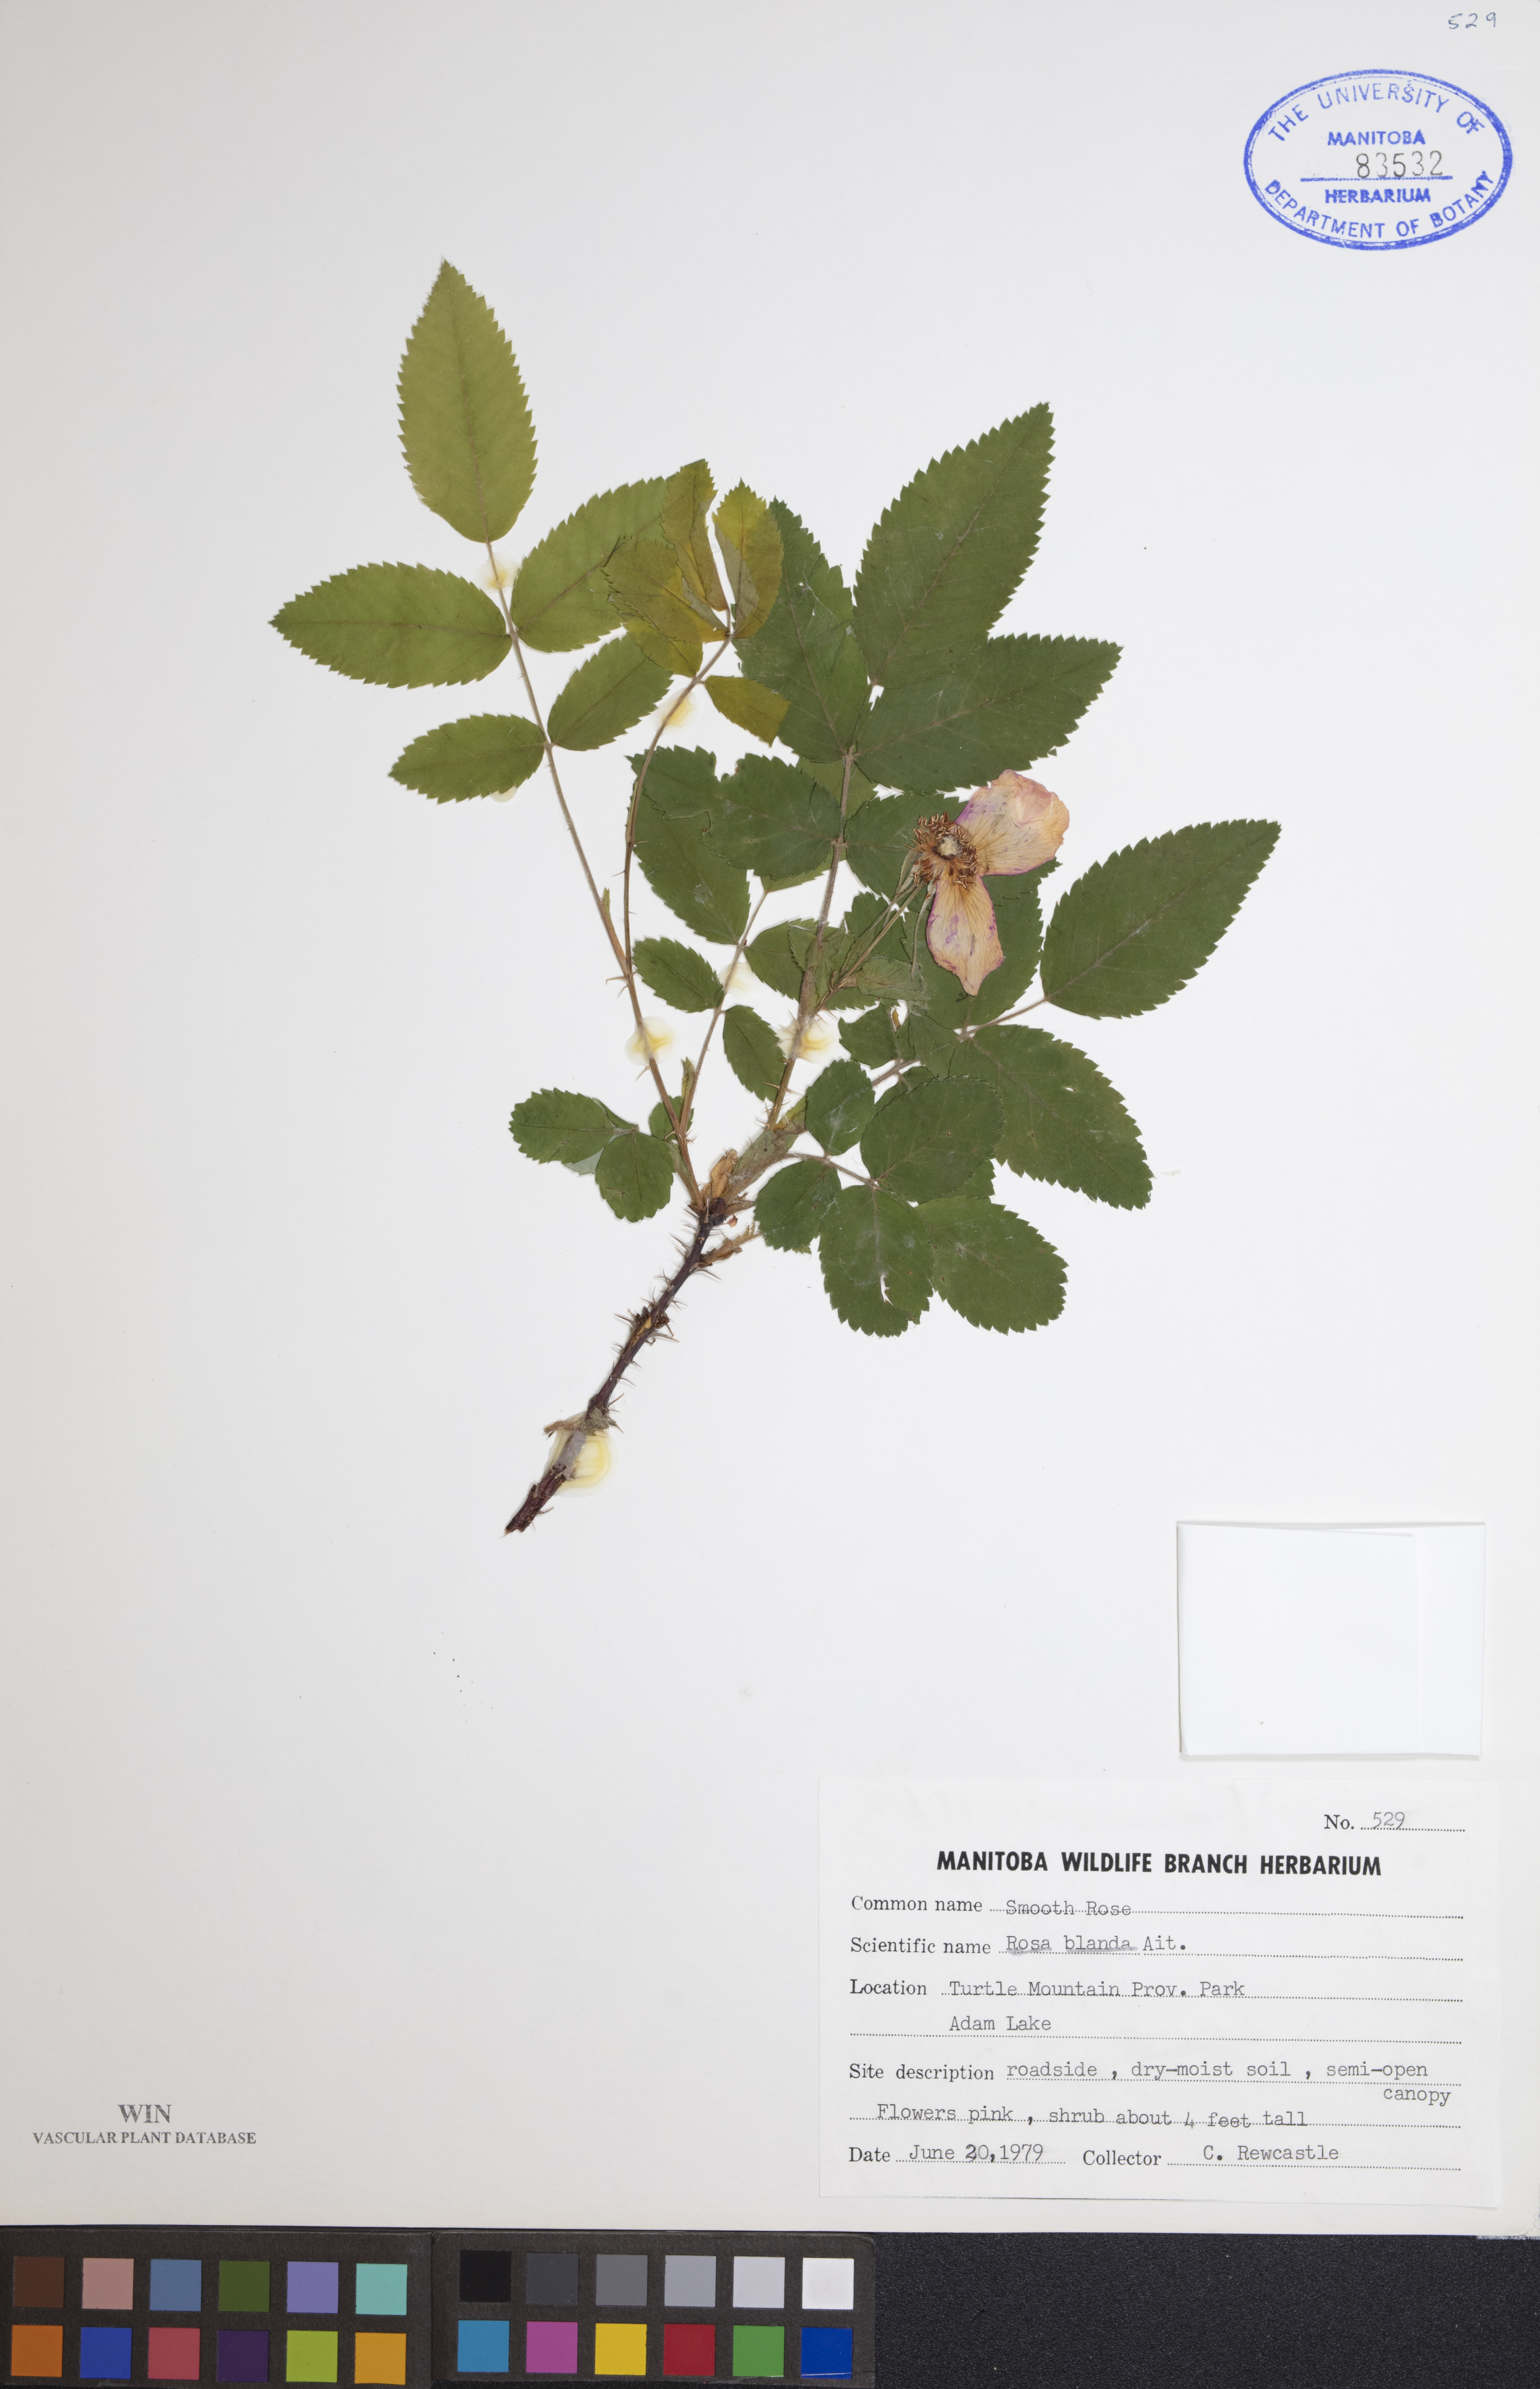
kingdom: Plantae
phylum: Tracheophyta
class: Magnoliopsida
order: Rosales
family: Rosaceae
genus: Rosa
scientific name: Rosa blanda
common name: Smooth rose
